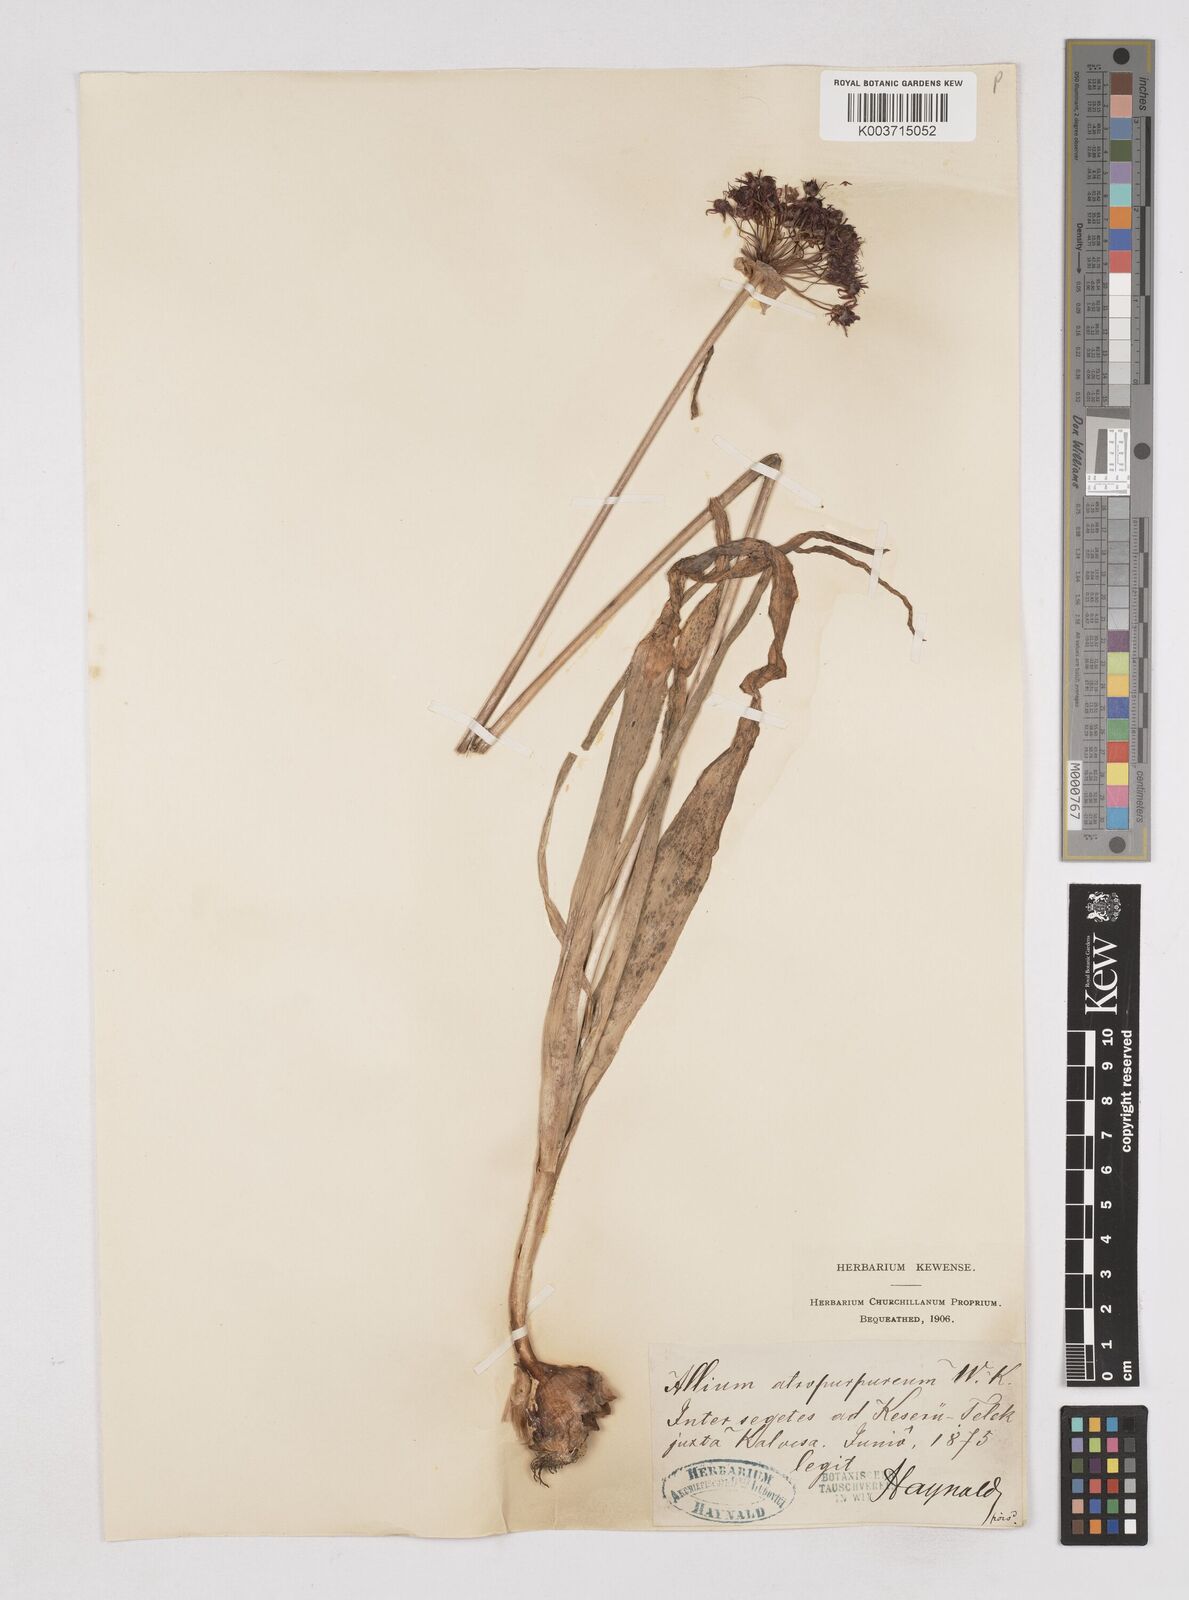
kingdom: Plantae
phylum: Tracheophyta
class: Liliopsida
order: Asparagales
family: Amaryllidaceae
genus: Allium
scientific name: Allium atropurpureum
